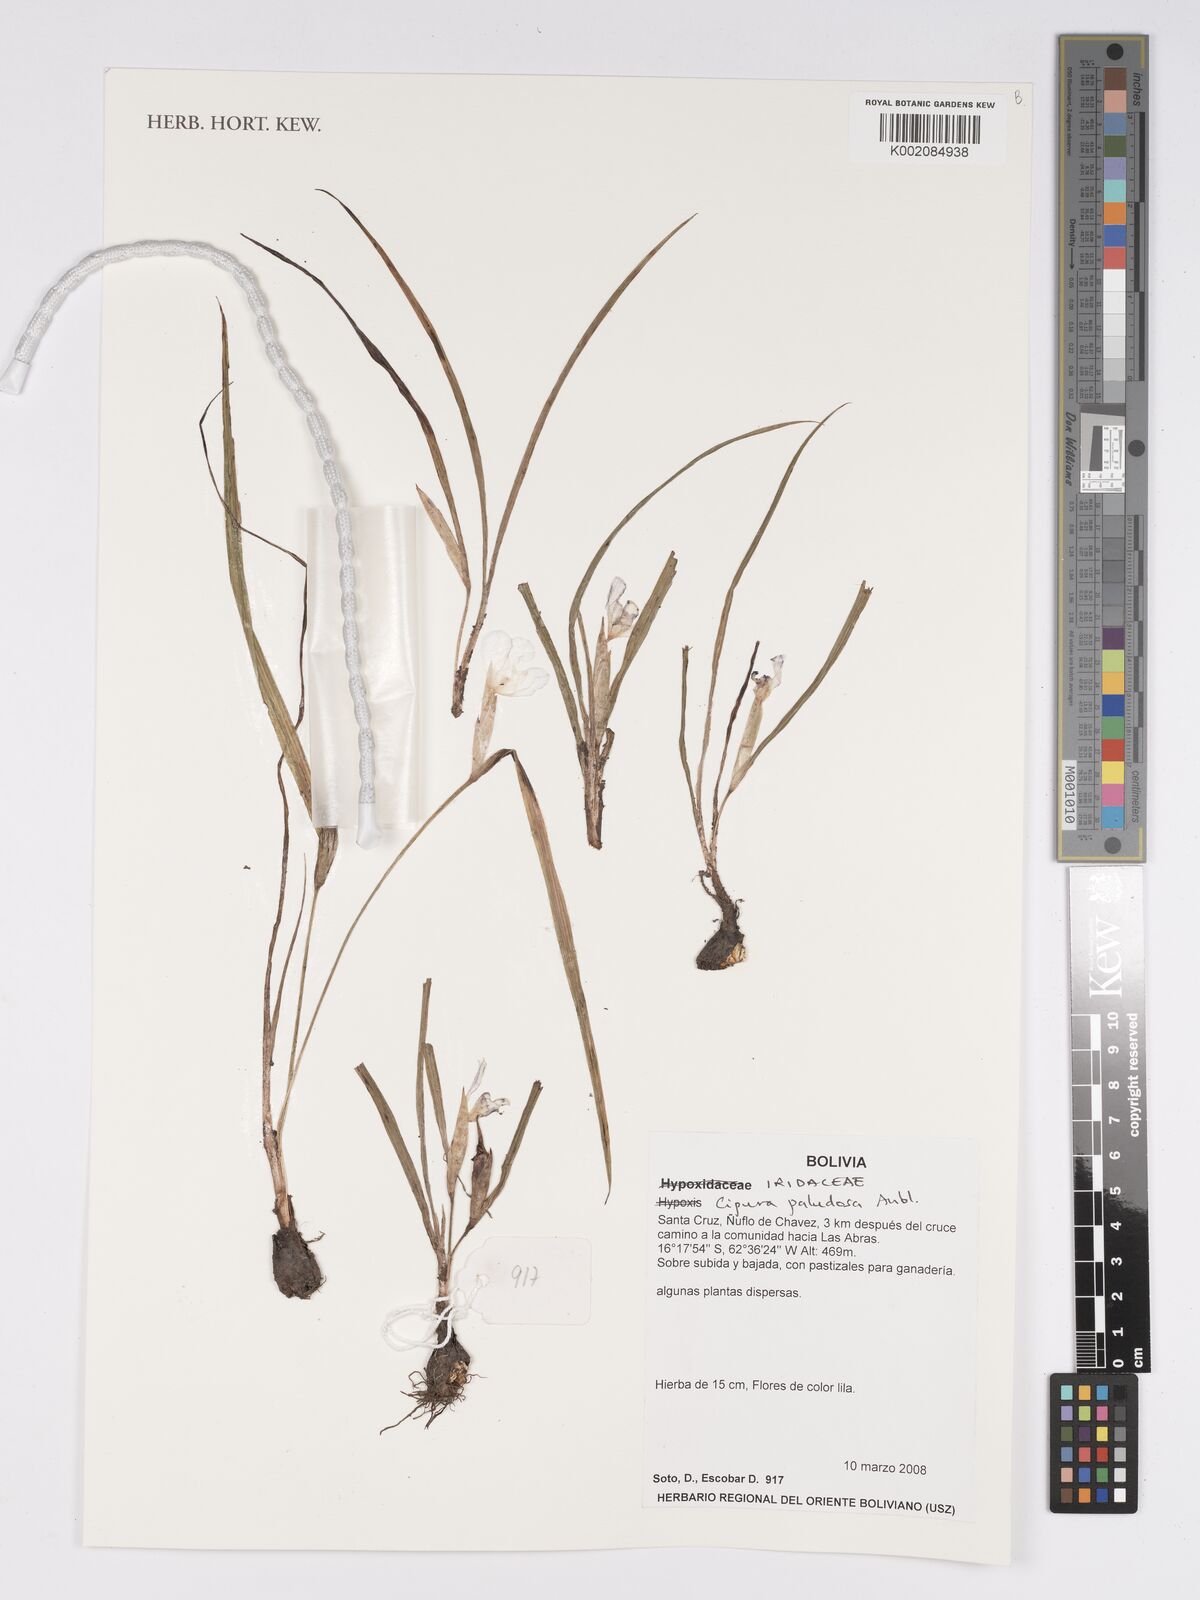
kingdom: Plantae
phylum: Tracheophyta
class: Liliopsida
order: Asparagales
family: Iridaceae
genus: Cipura
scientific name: Cipura paludosa
